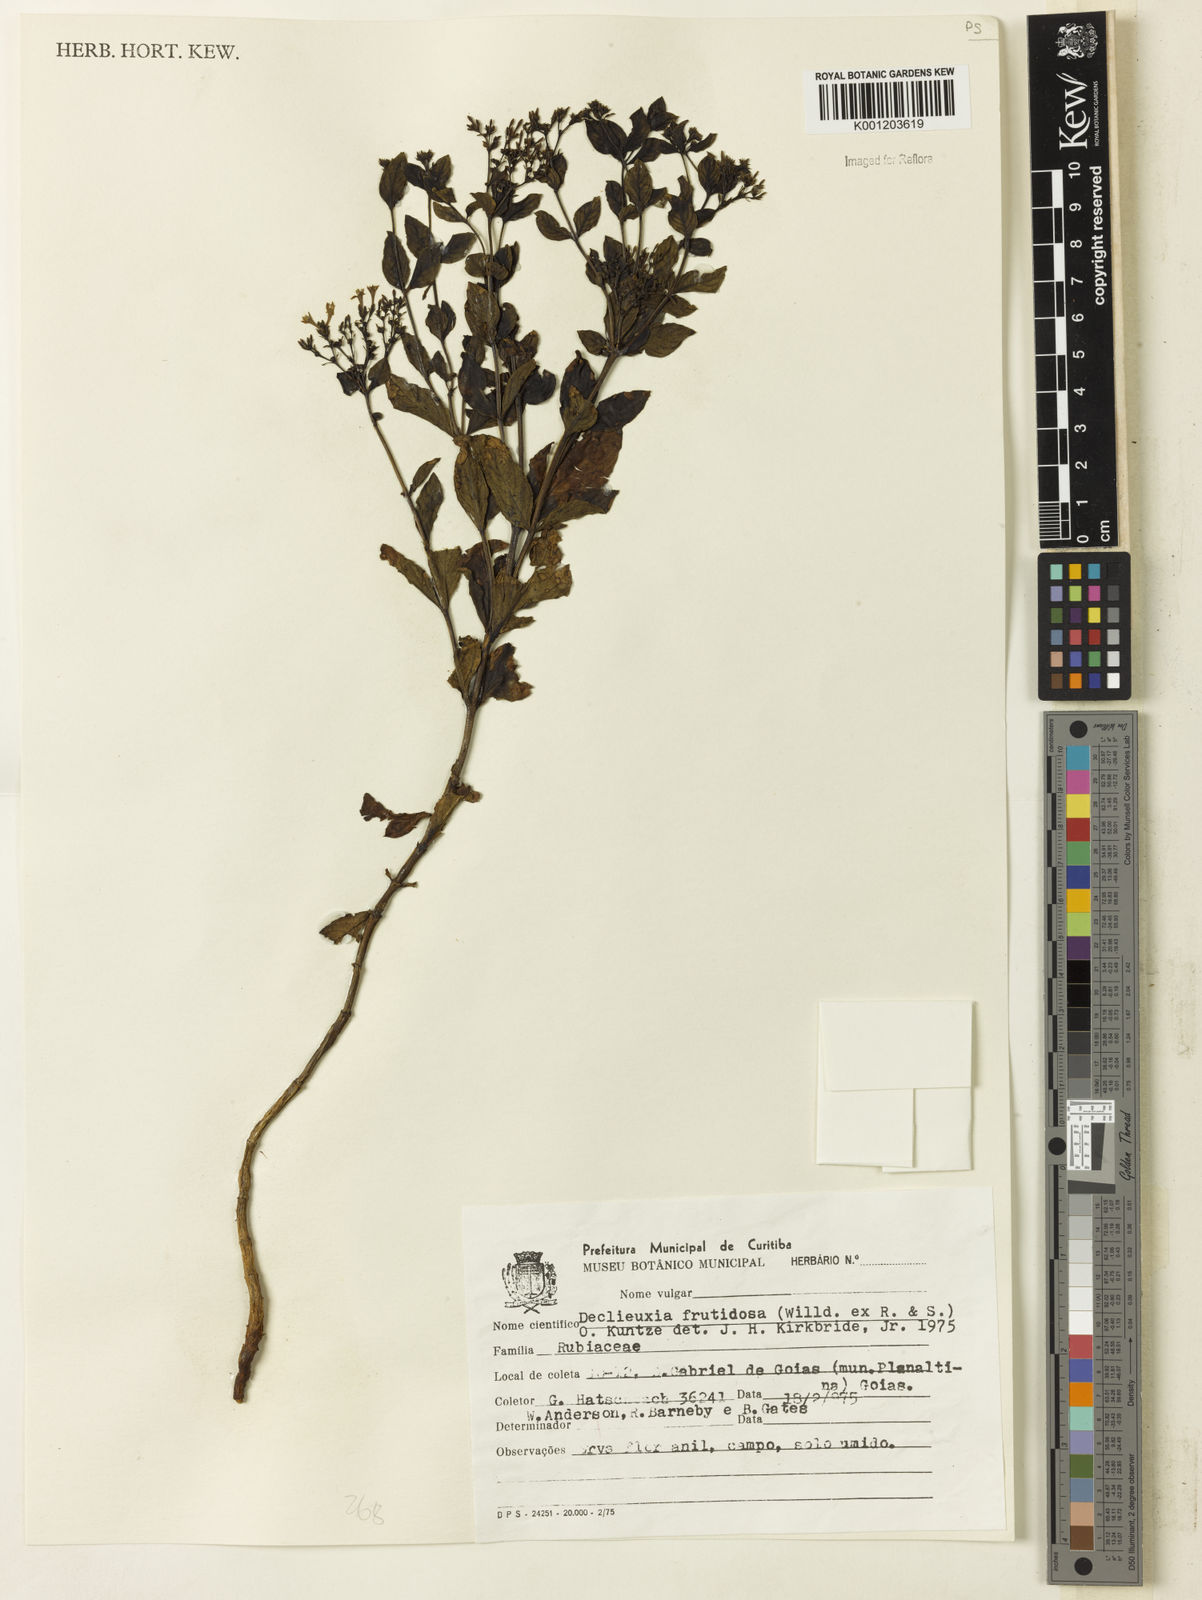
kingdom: Plantae
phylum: Tracheophyta
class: Magnoliopsida
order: Gentianales
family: Rubiaceae
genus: Declieuxia
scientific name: Declieuxia fruticosa
